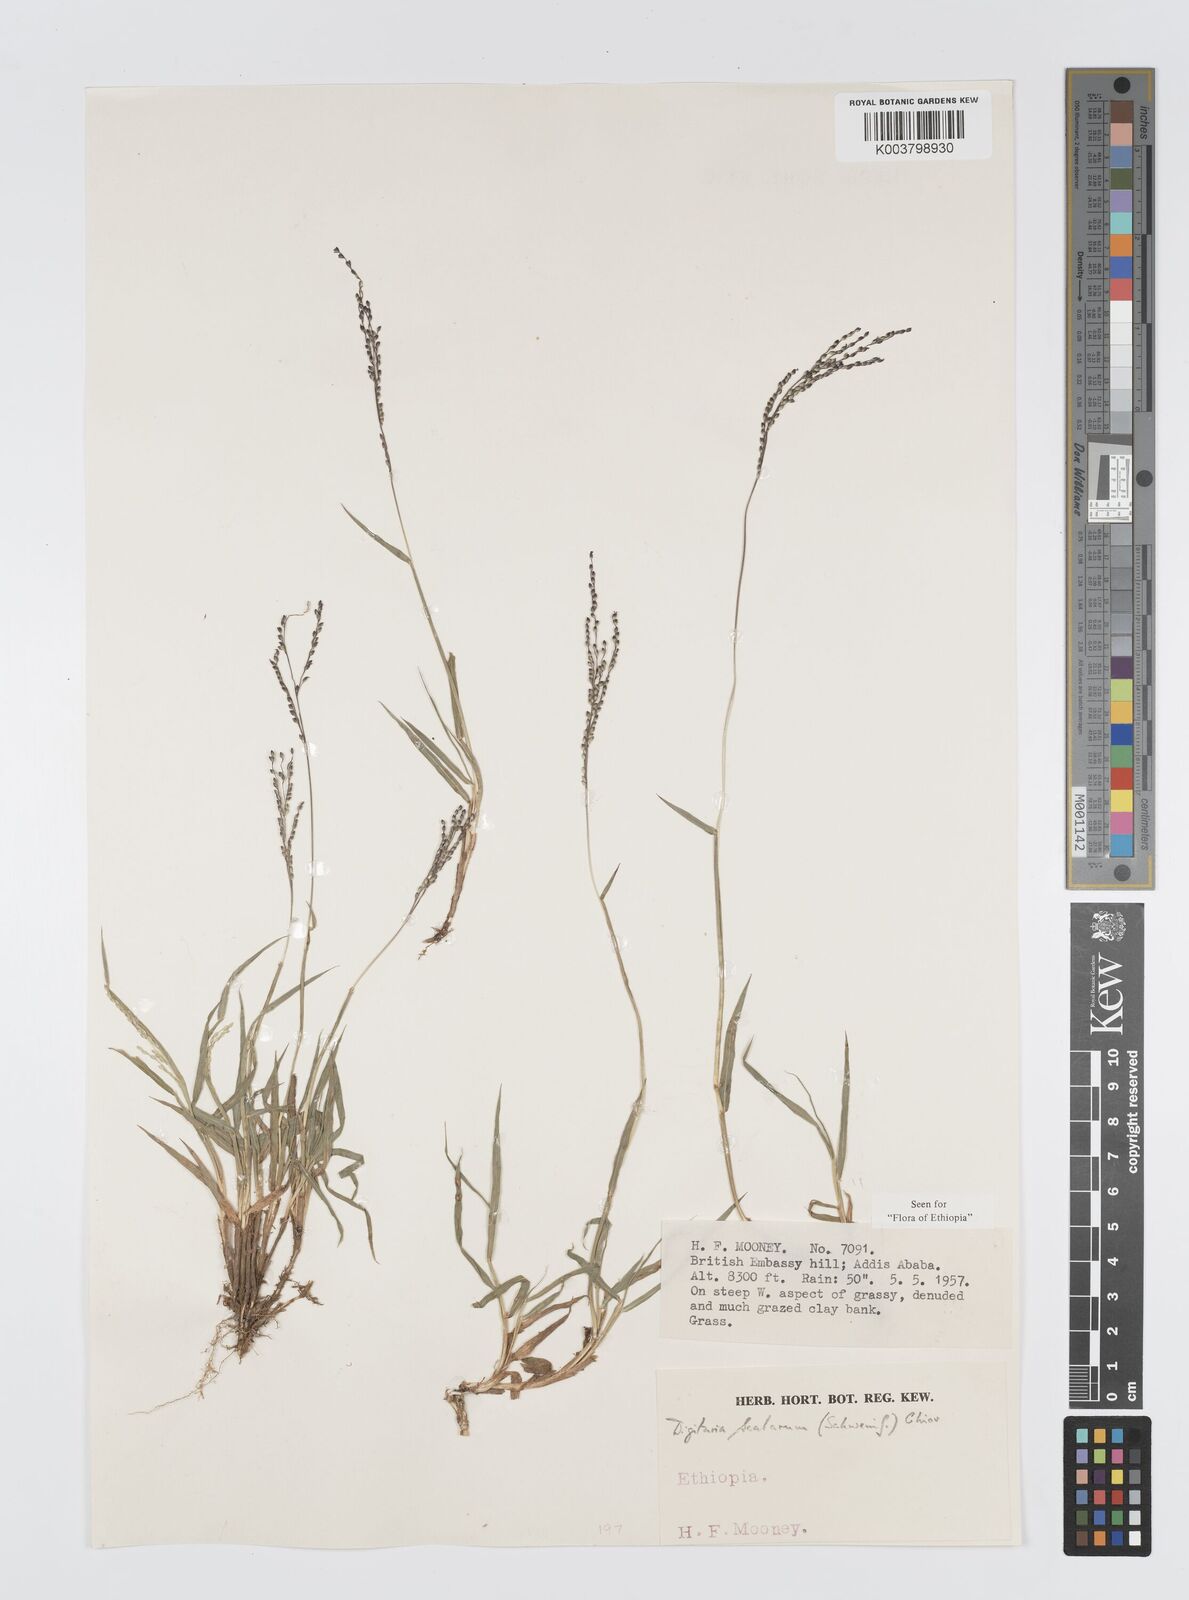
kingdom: Plantae
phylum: Tracheophyta
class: Liliopsida
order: Poales
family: Poaceae
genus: Digitaria
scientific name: Digitaria abyssinica
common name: African couchgrass
